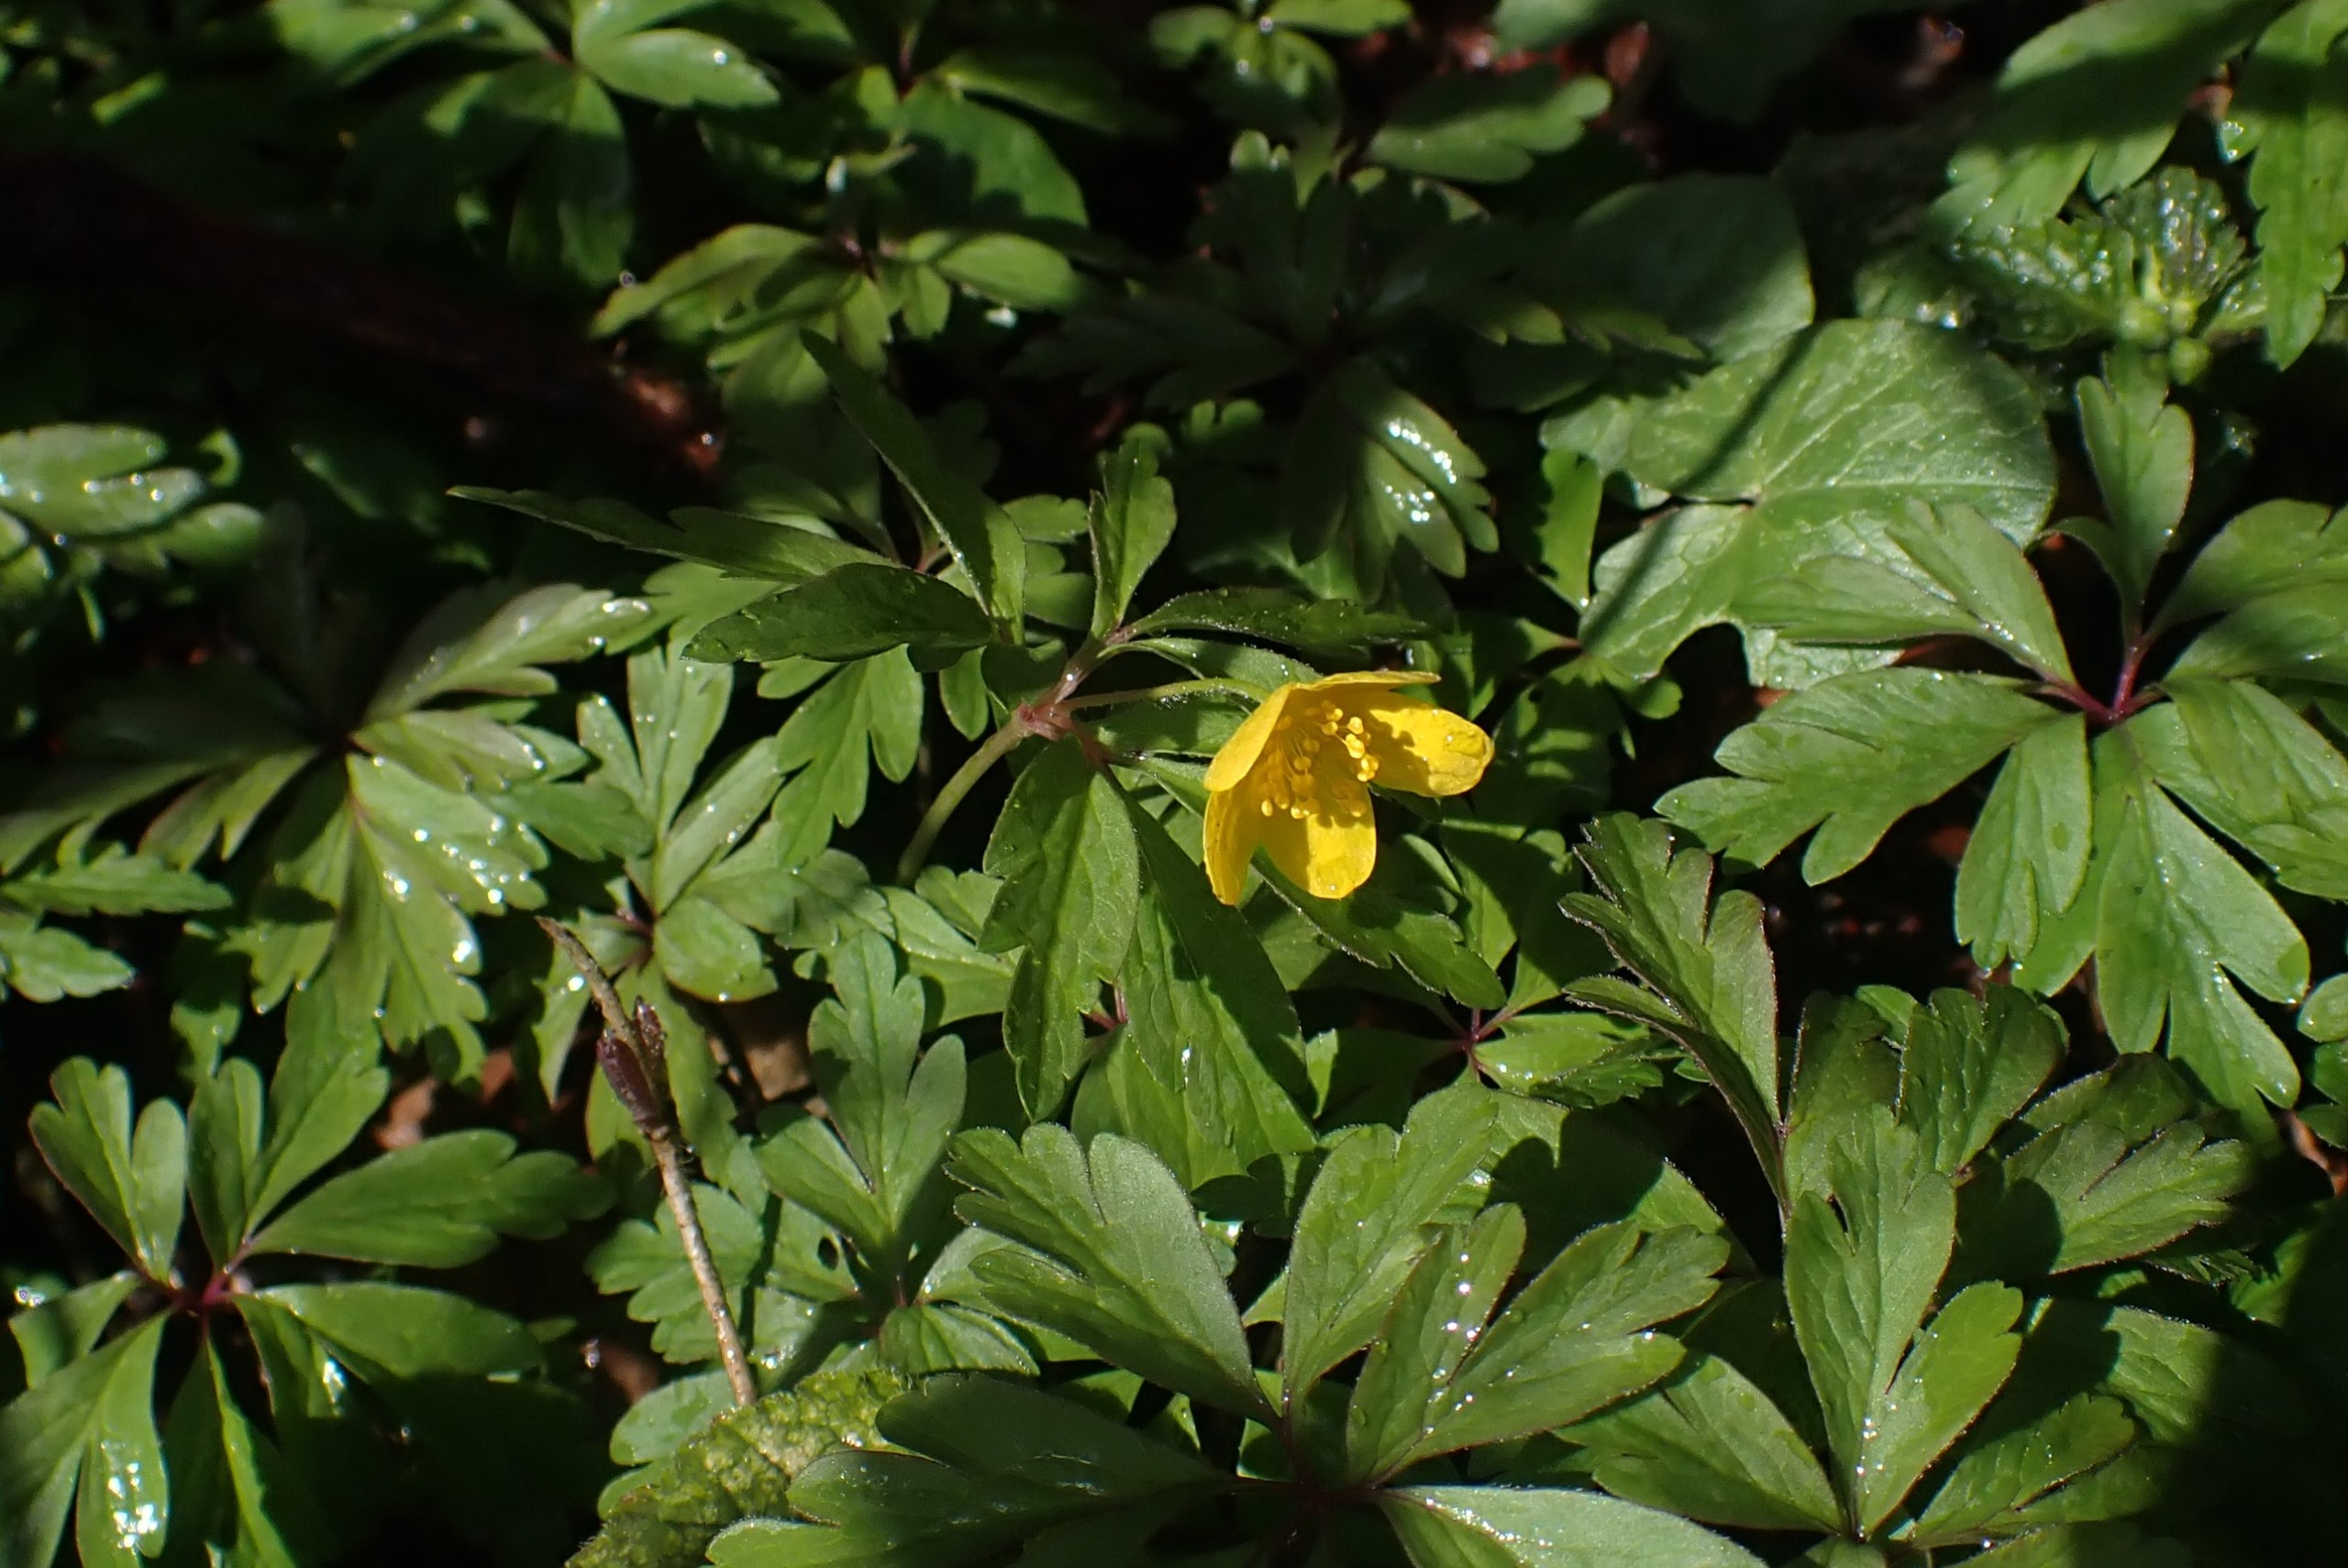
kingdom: Plantae
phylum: Tracheophyta
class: Magnoliopsida
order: Ranunculales
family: Ranunculaceae
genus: Anemone
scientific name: Anemone ranunculoides
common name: Gul anemone
